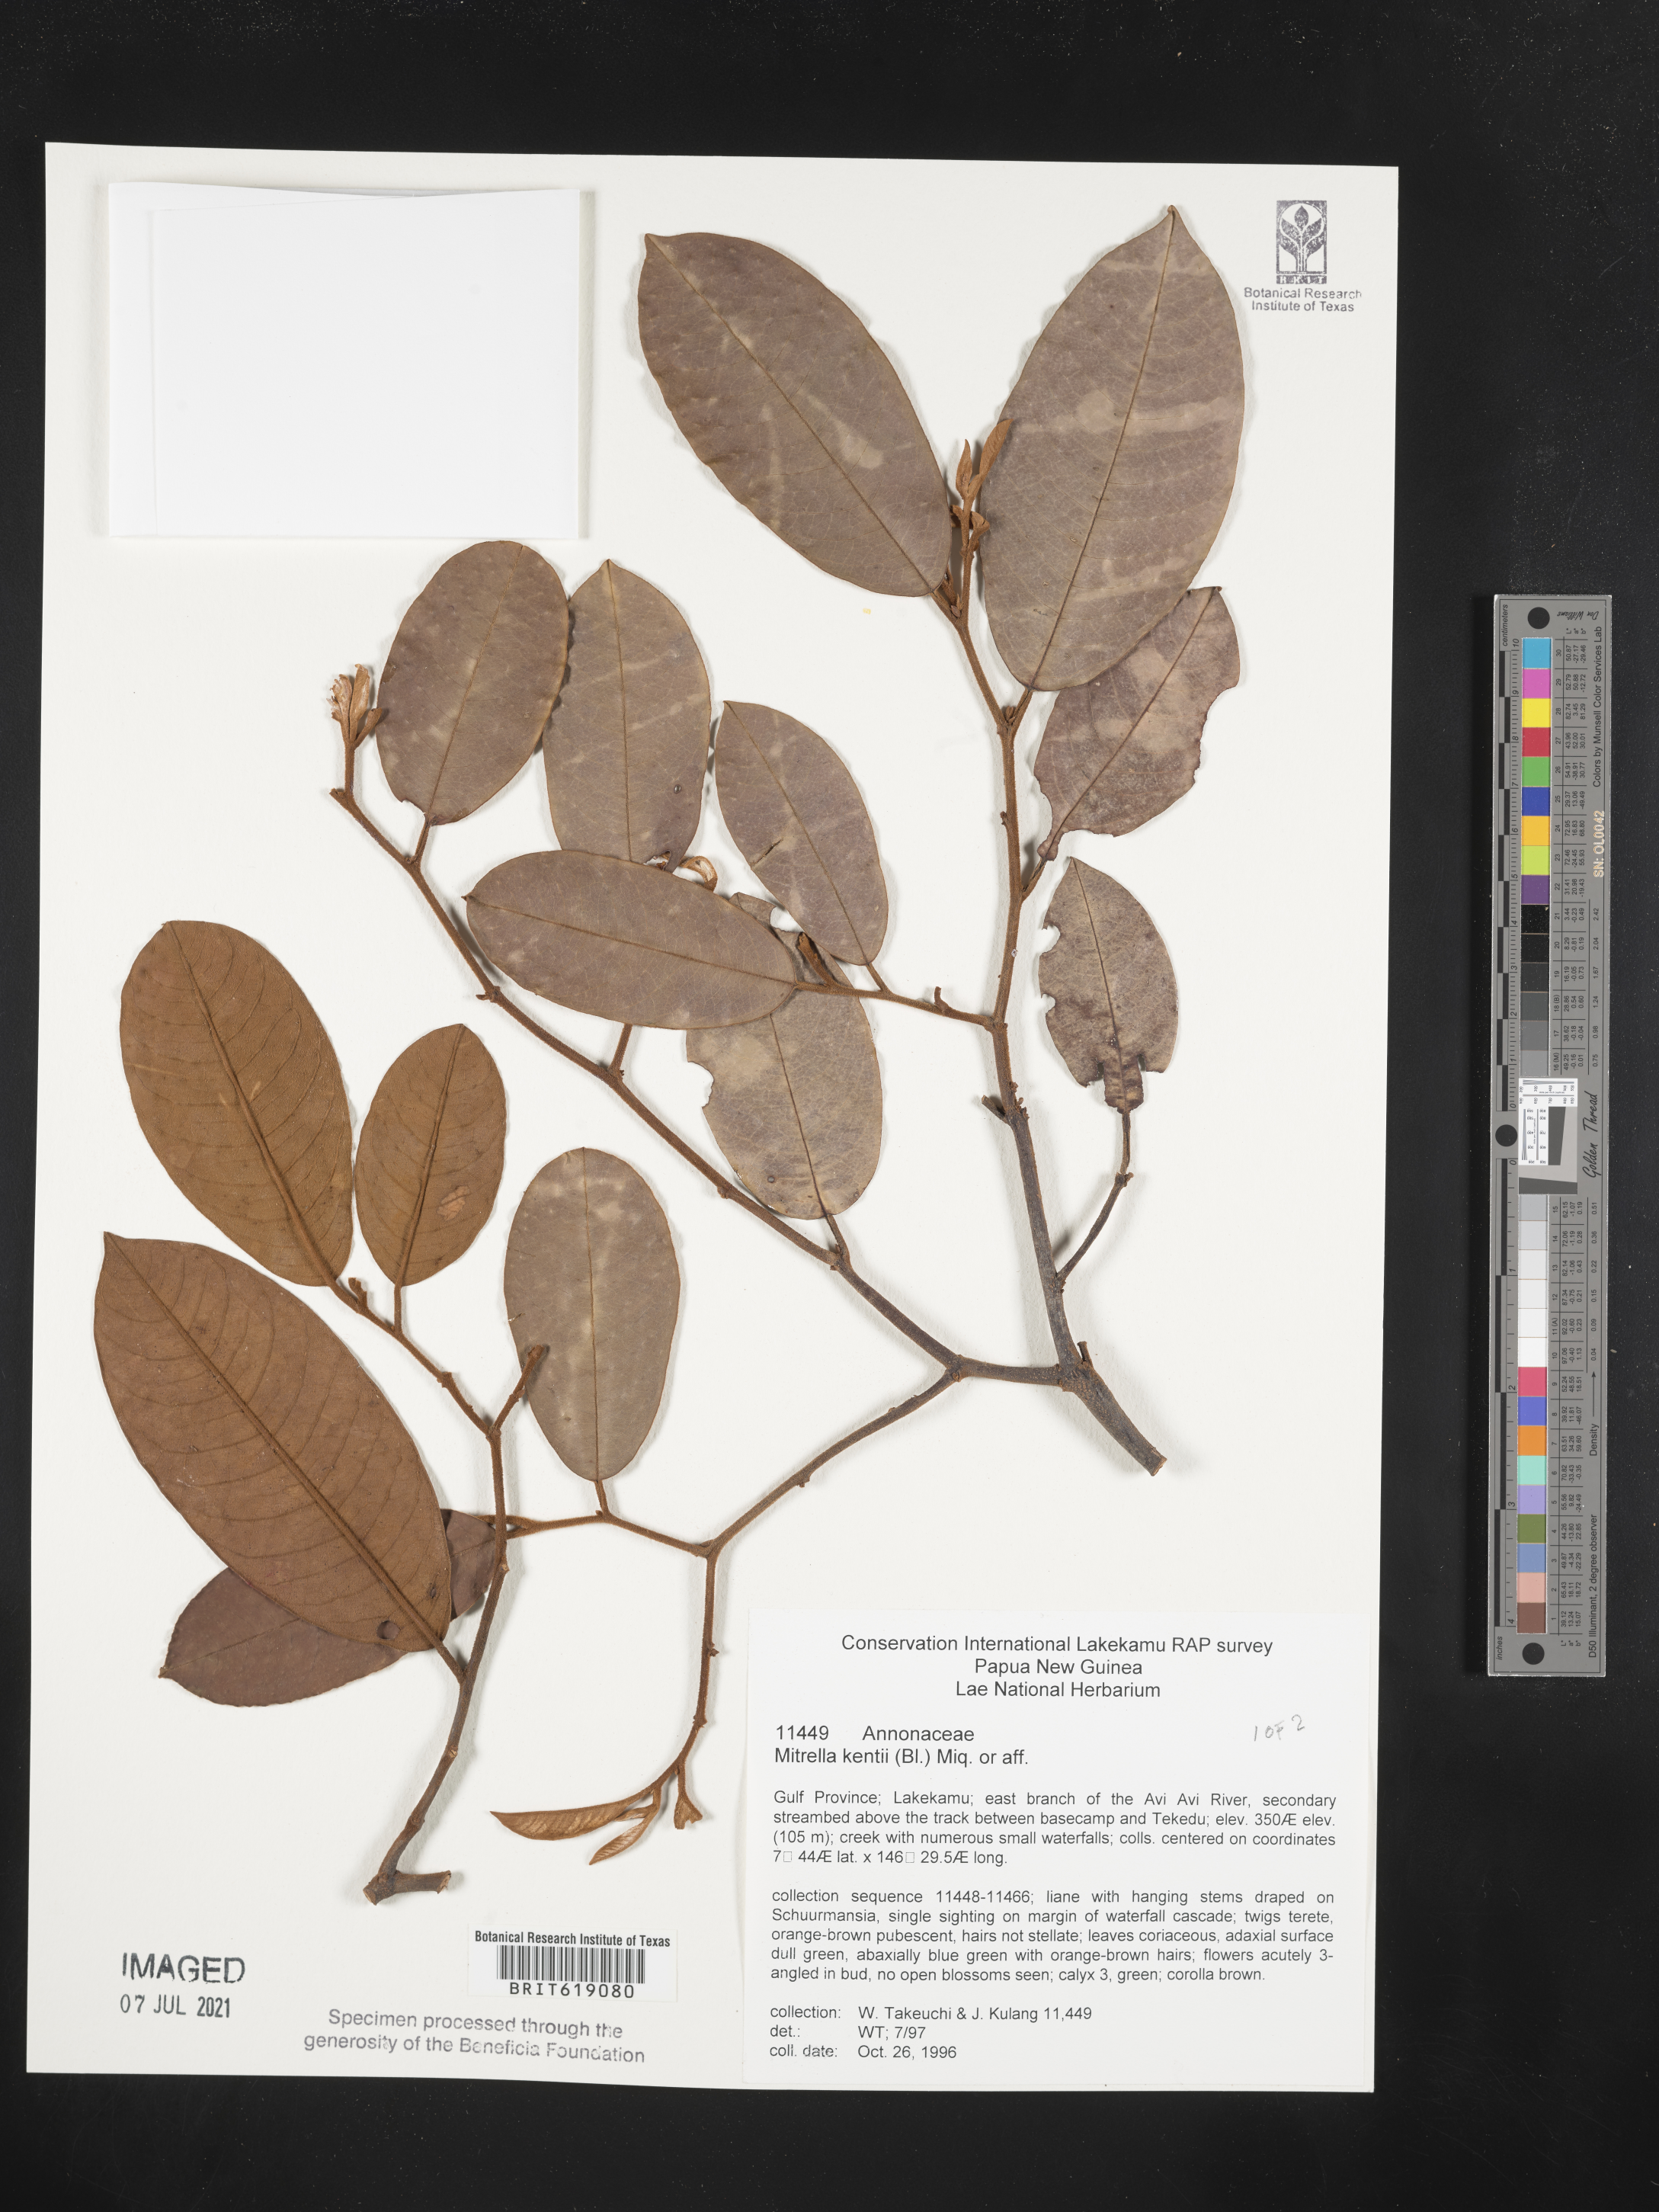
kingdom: Plantae
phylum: Tracheophyta
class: Magnoliopsida
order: Magnoliales
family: Annonaceae
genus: Mitrella
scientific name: Mitrella kentii
